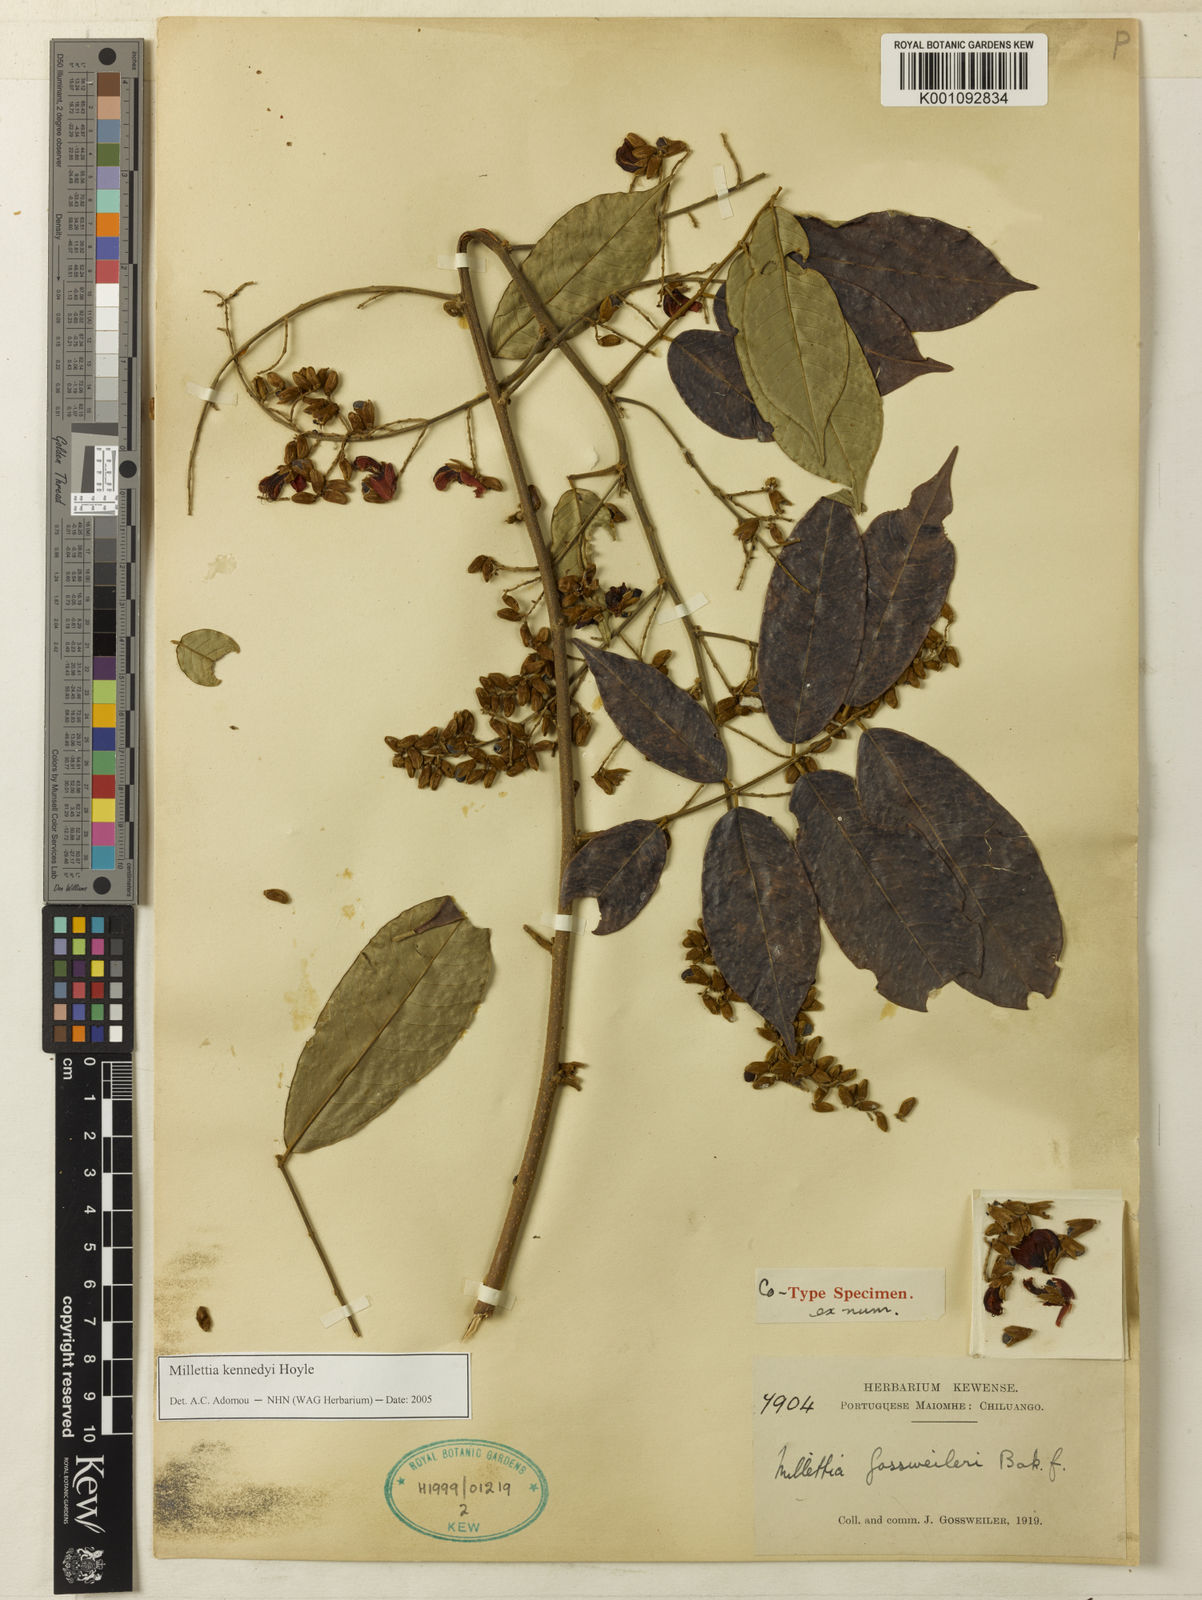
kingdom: Plantae
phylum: Tracheophyta
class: Magnoliopsida
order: Fabales
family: Fabaceae
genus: Millettia
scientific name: Millettia lecomtei
